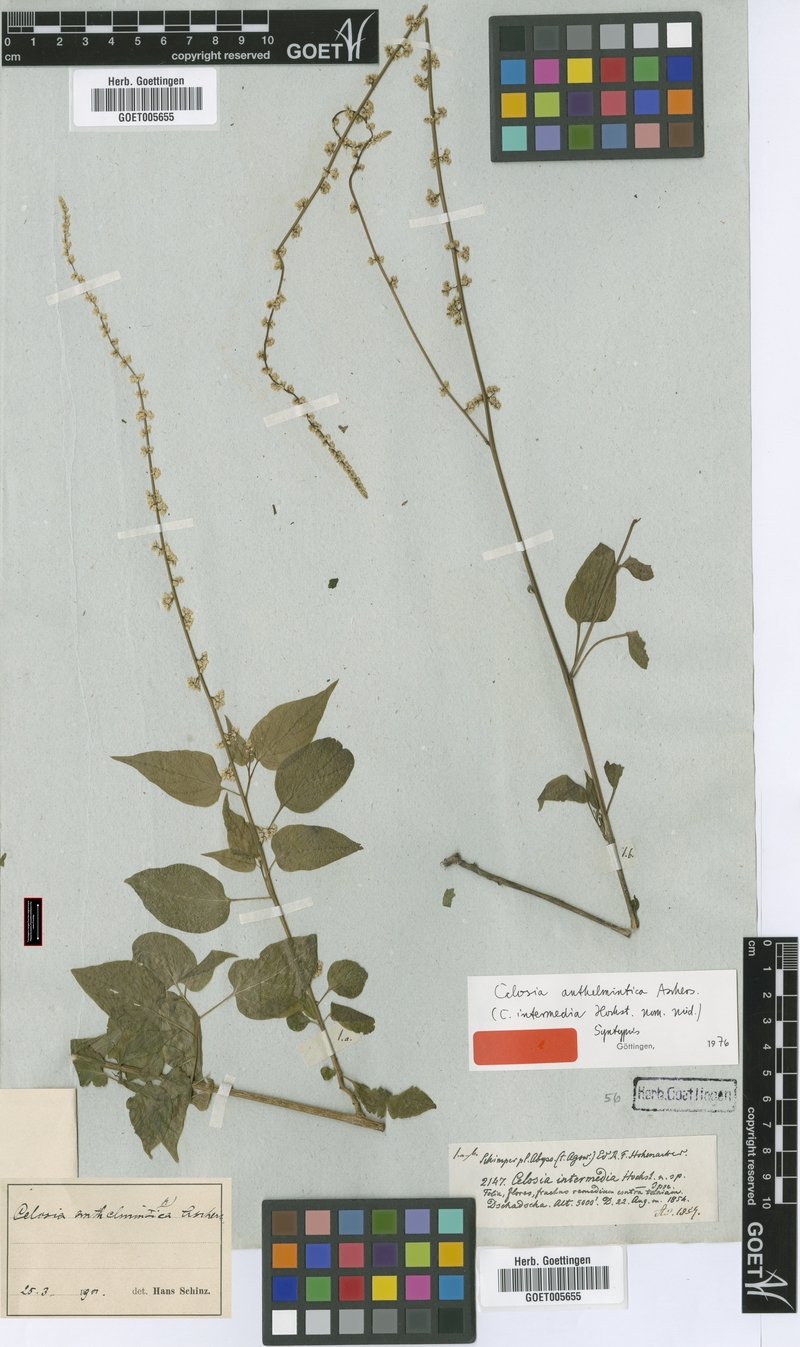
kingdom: Plantae
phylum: Tracheophyta
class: Magnoliopsida
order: Caryophyllales
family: Amaranthaceae
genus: Celosia
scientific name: Celosia anthelminthica
